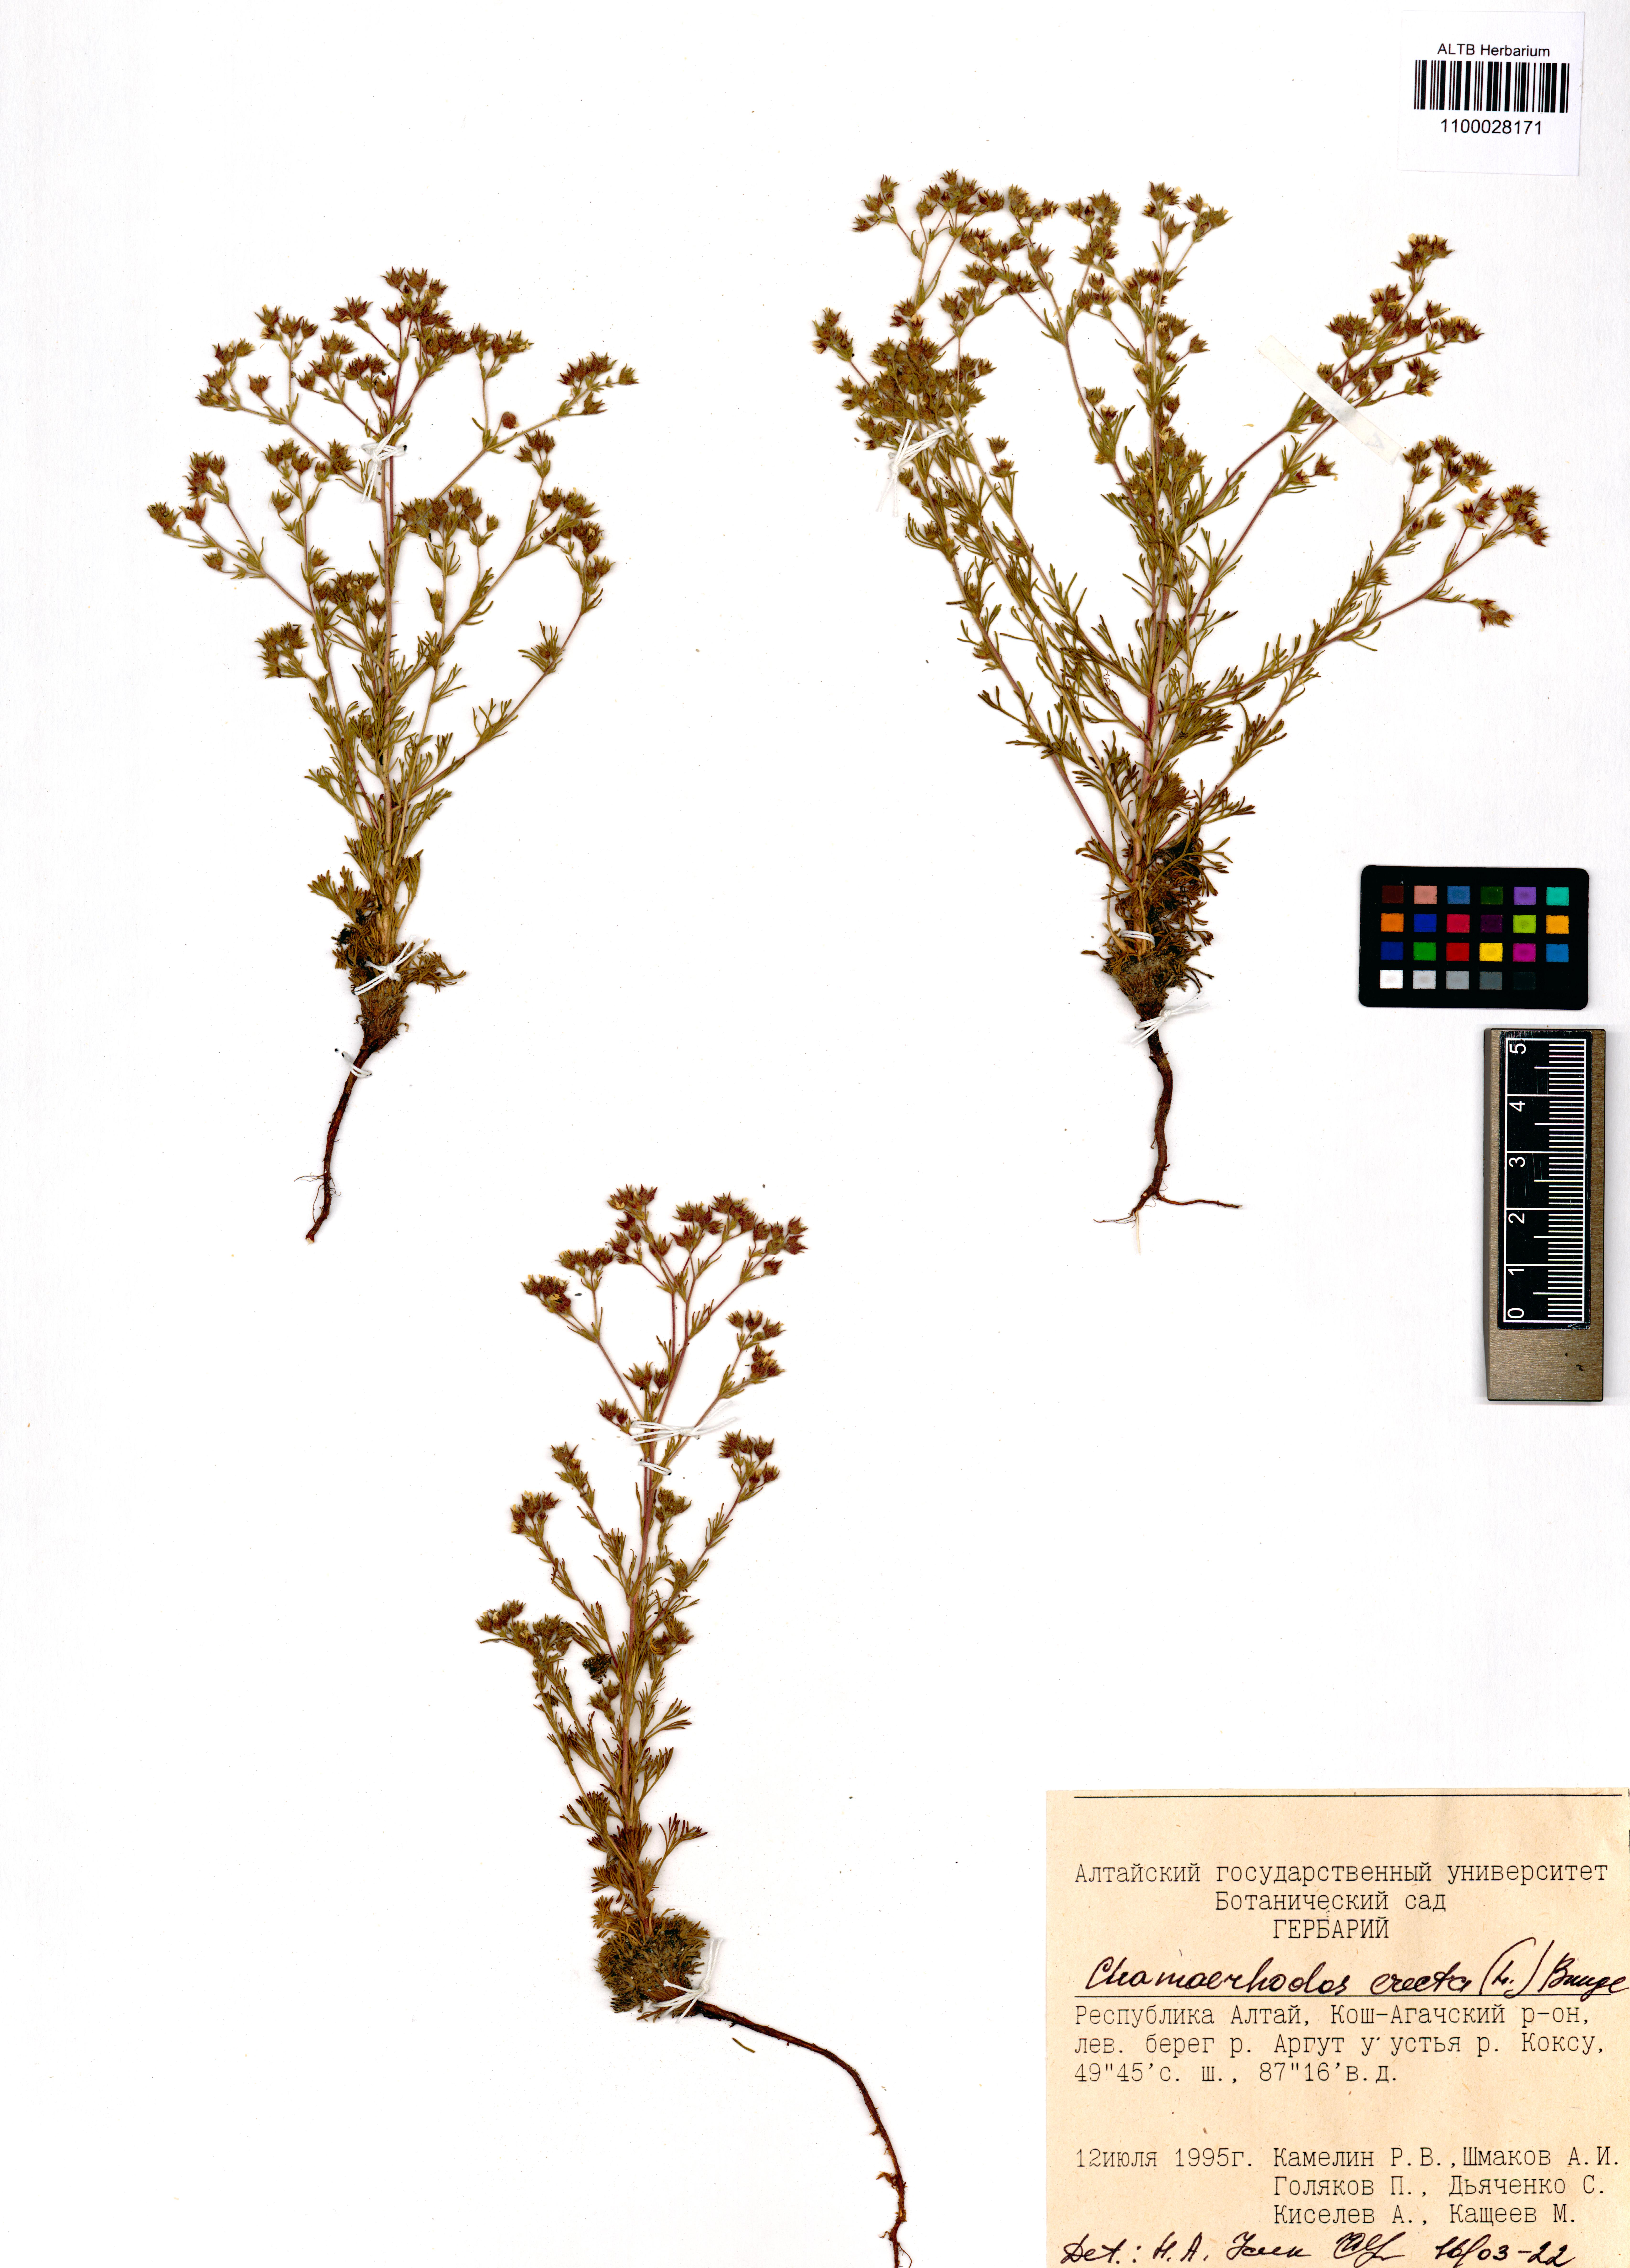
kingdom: Plantae
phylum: Tracheophyta
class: Magnoliopsida
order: Rosales
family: Rosaceae
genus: Chamaerhodos
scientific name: Chamaerhodos erecta
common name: American chamaerhodos
